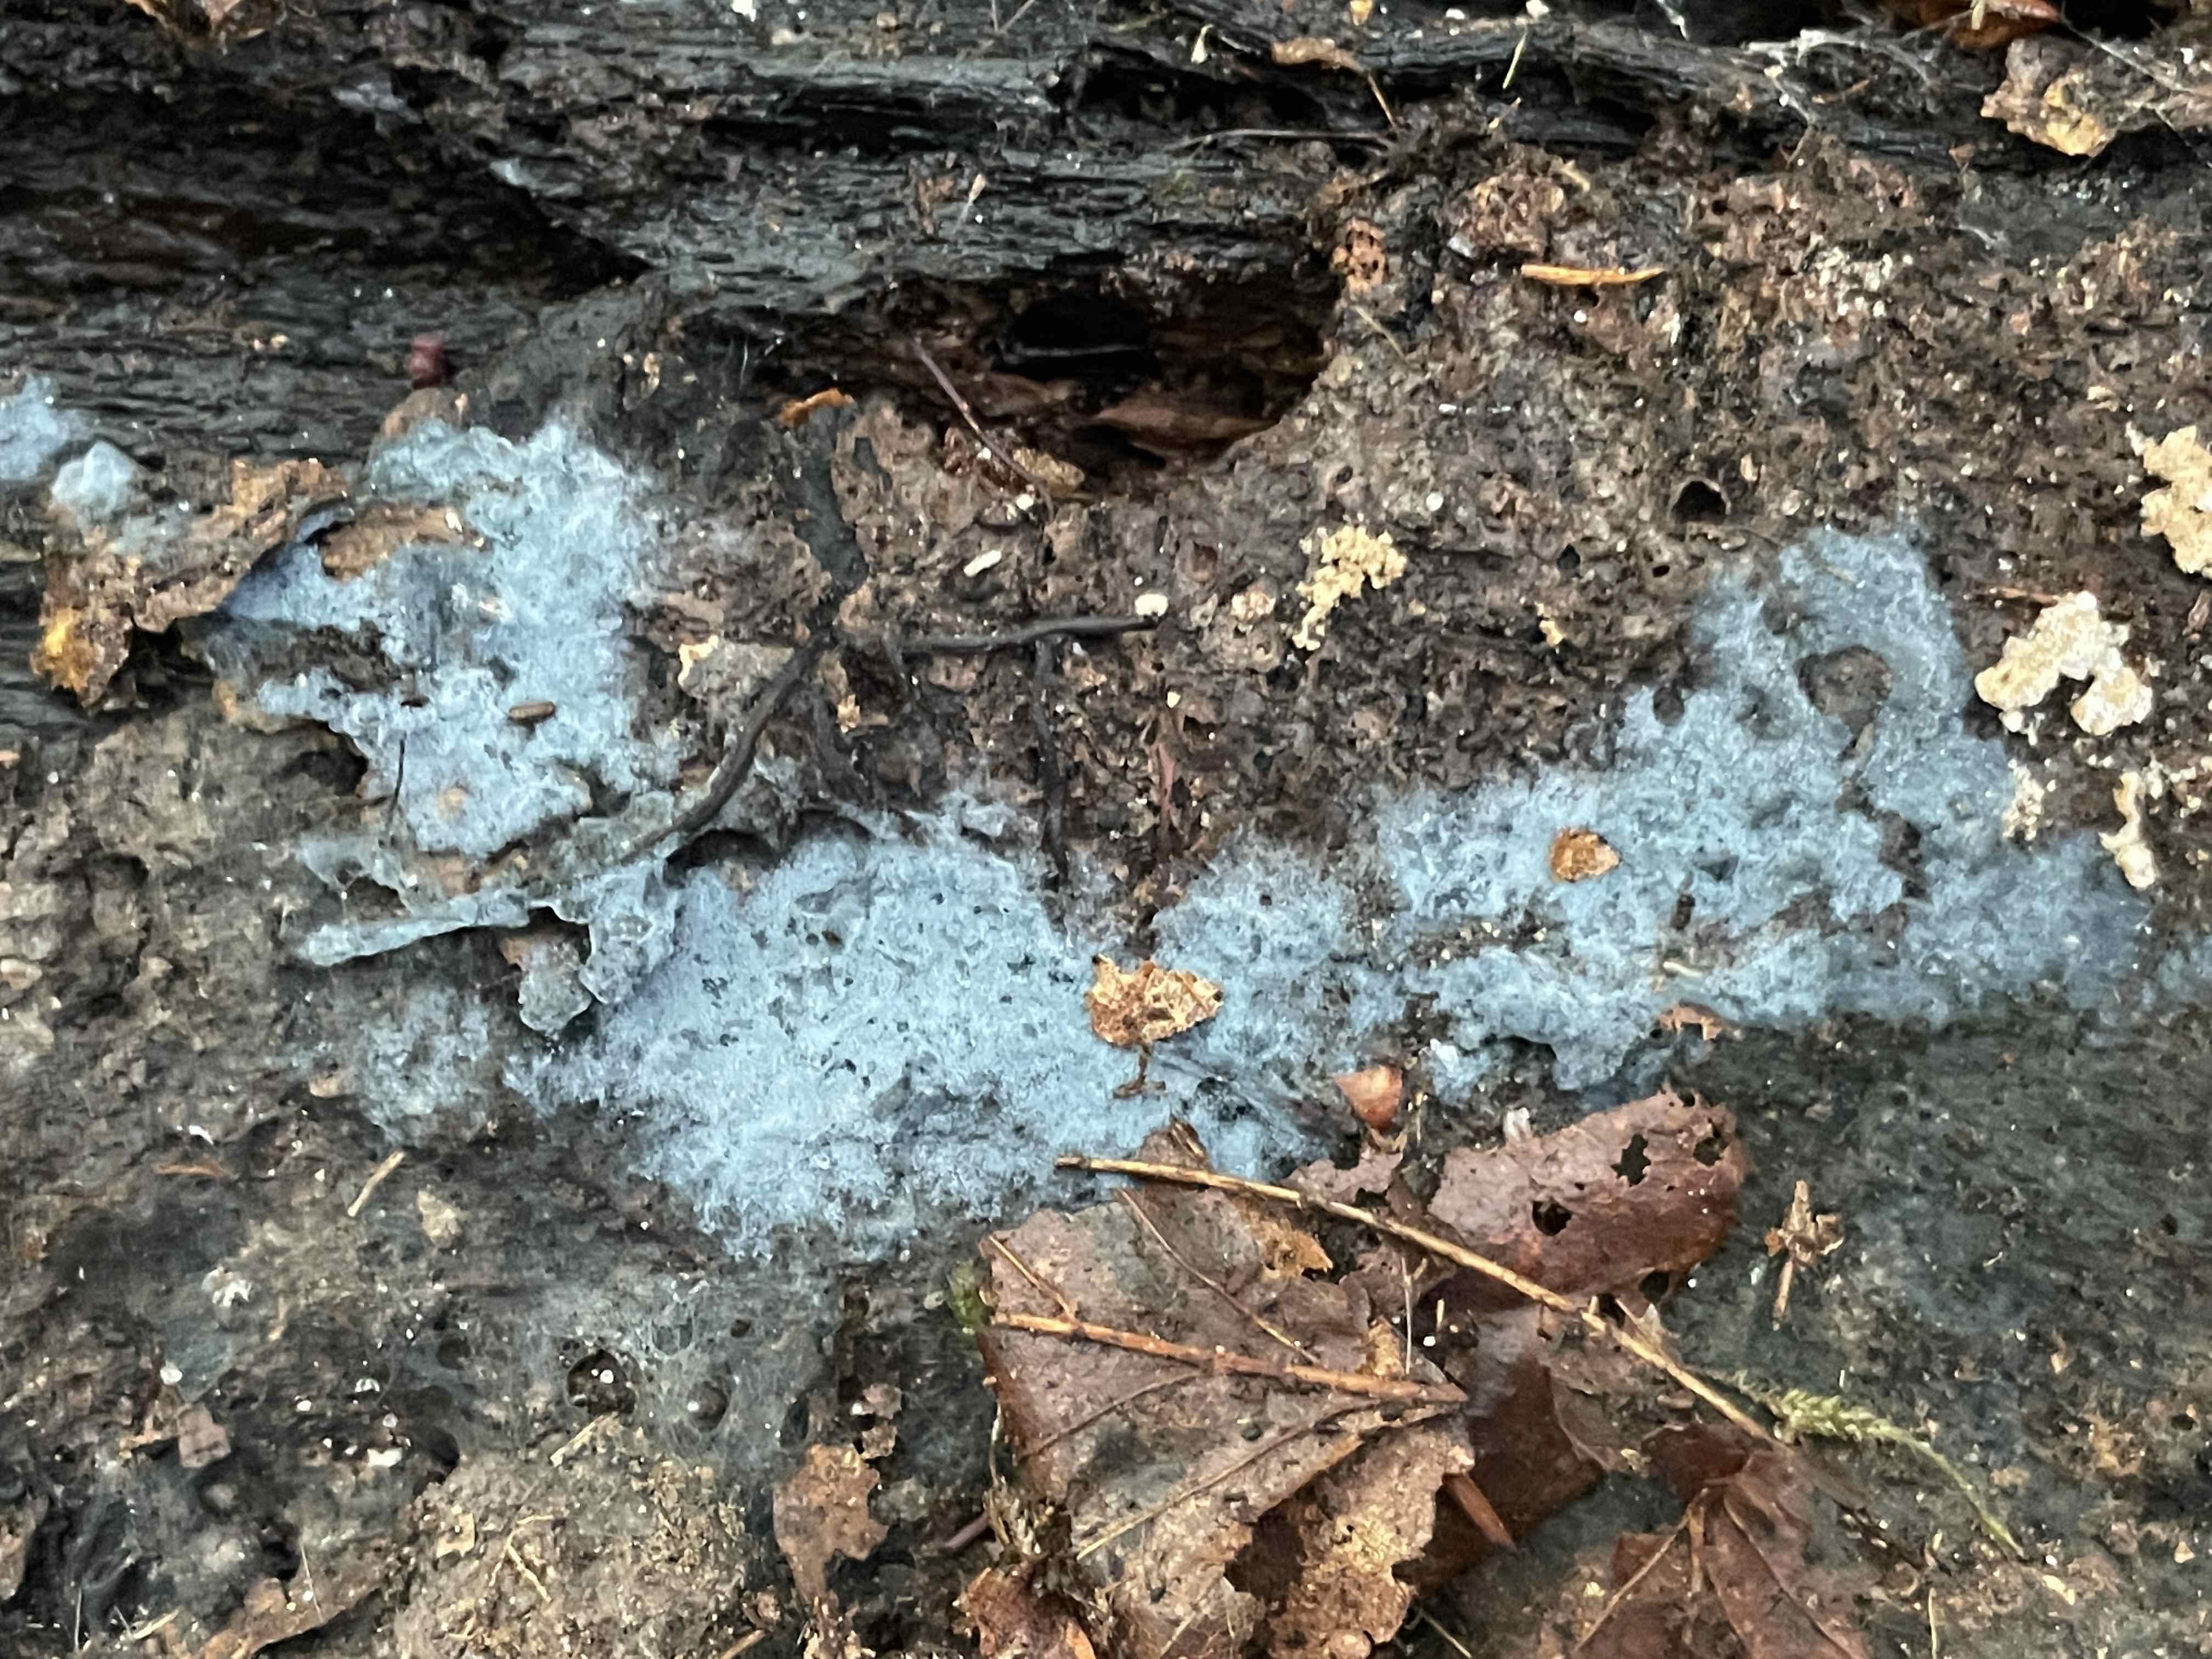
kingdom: Fungi
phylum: Basidiomycota
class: Agaricomycetes
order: Atheliales
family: Atheliaceae
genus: Byssocorticium
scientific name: Byssocorticium atrovirens
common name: blå førnehinde
